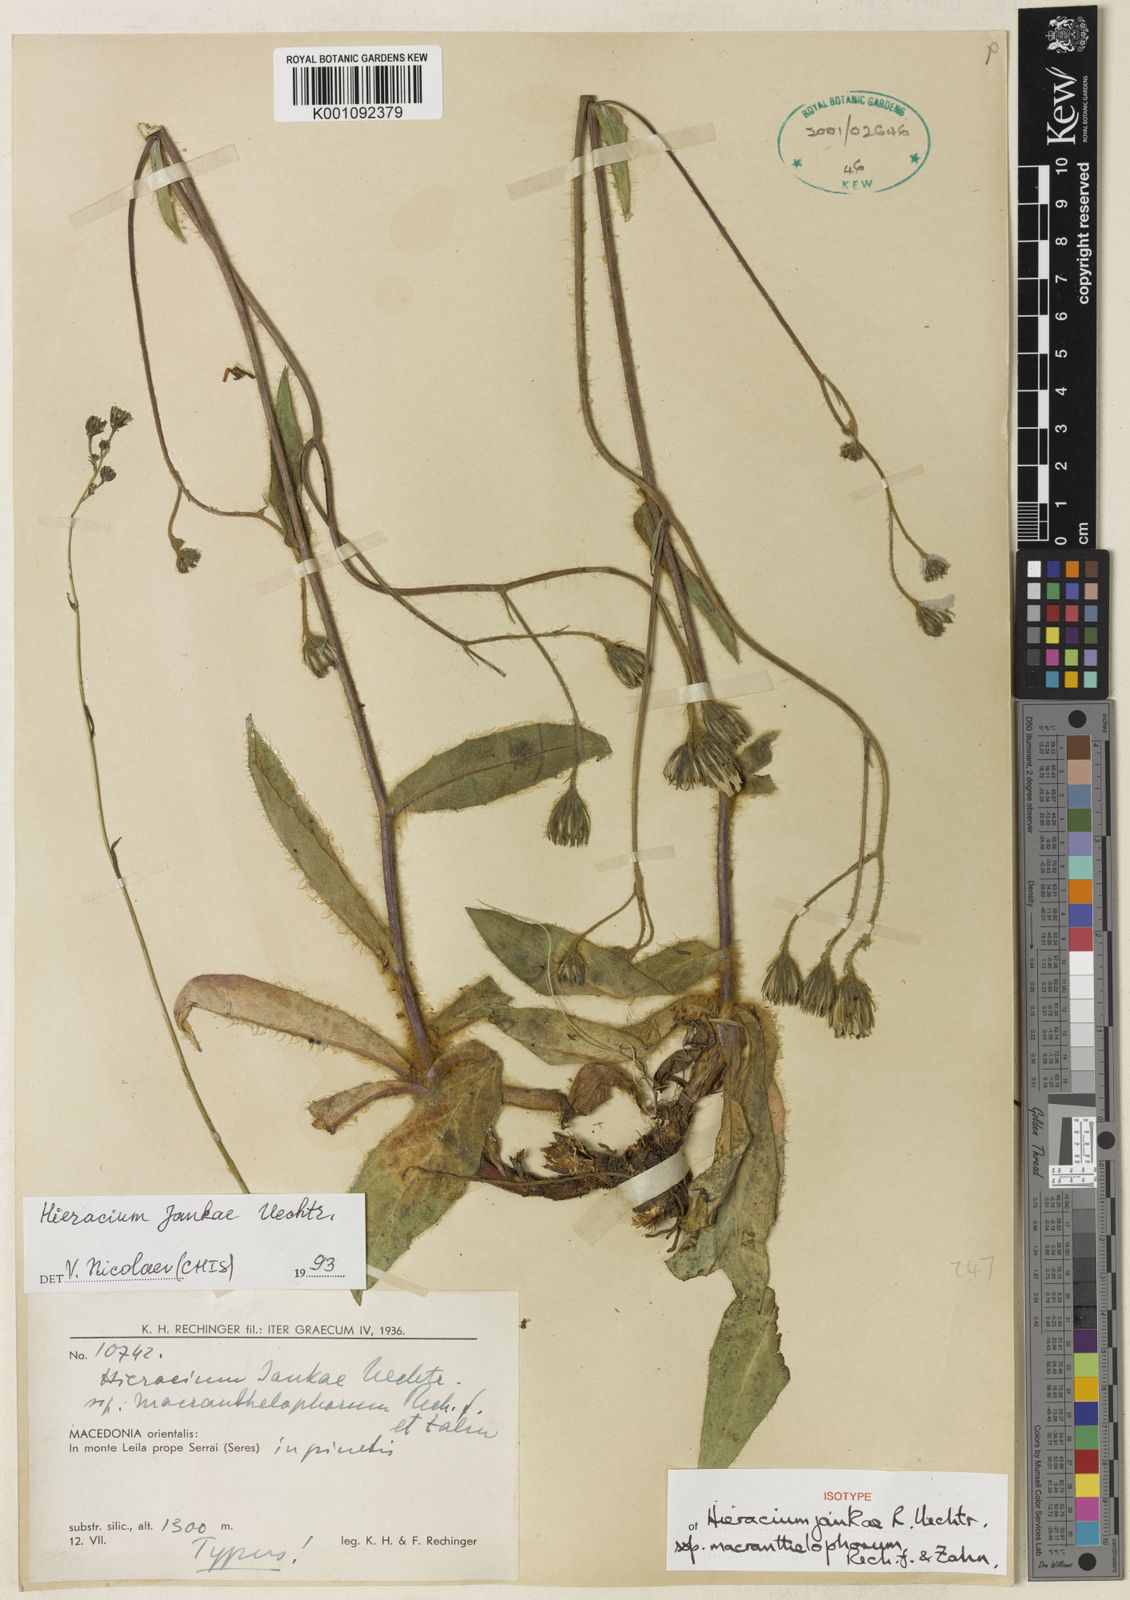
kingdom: Plantae
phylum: Tracheophyta
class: Magnoliopsida
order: Asterales
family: Asteraceae
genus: Hieracium
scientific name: Hieracium jankae
